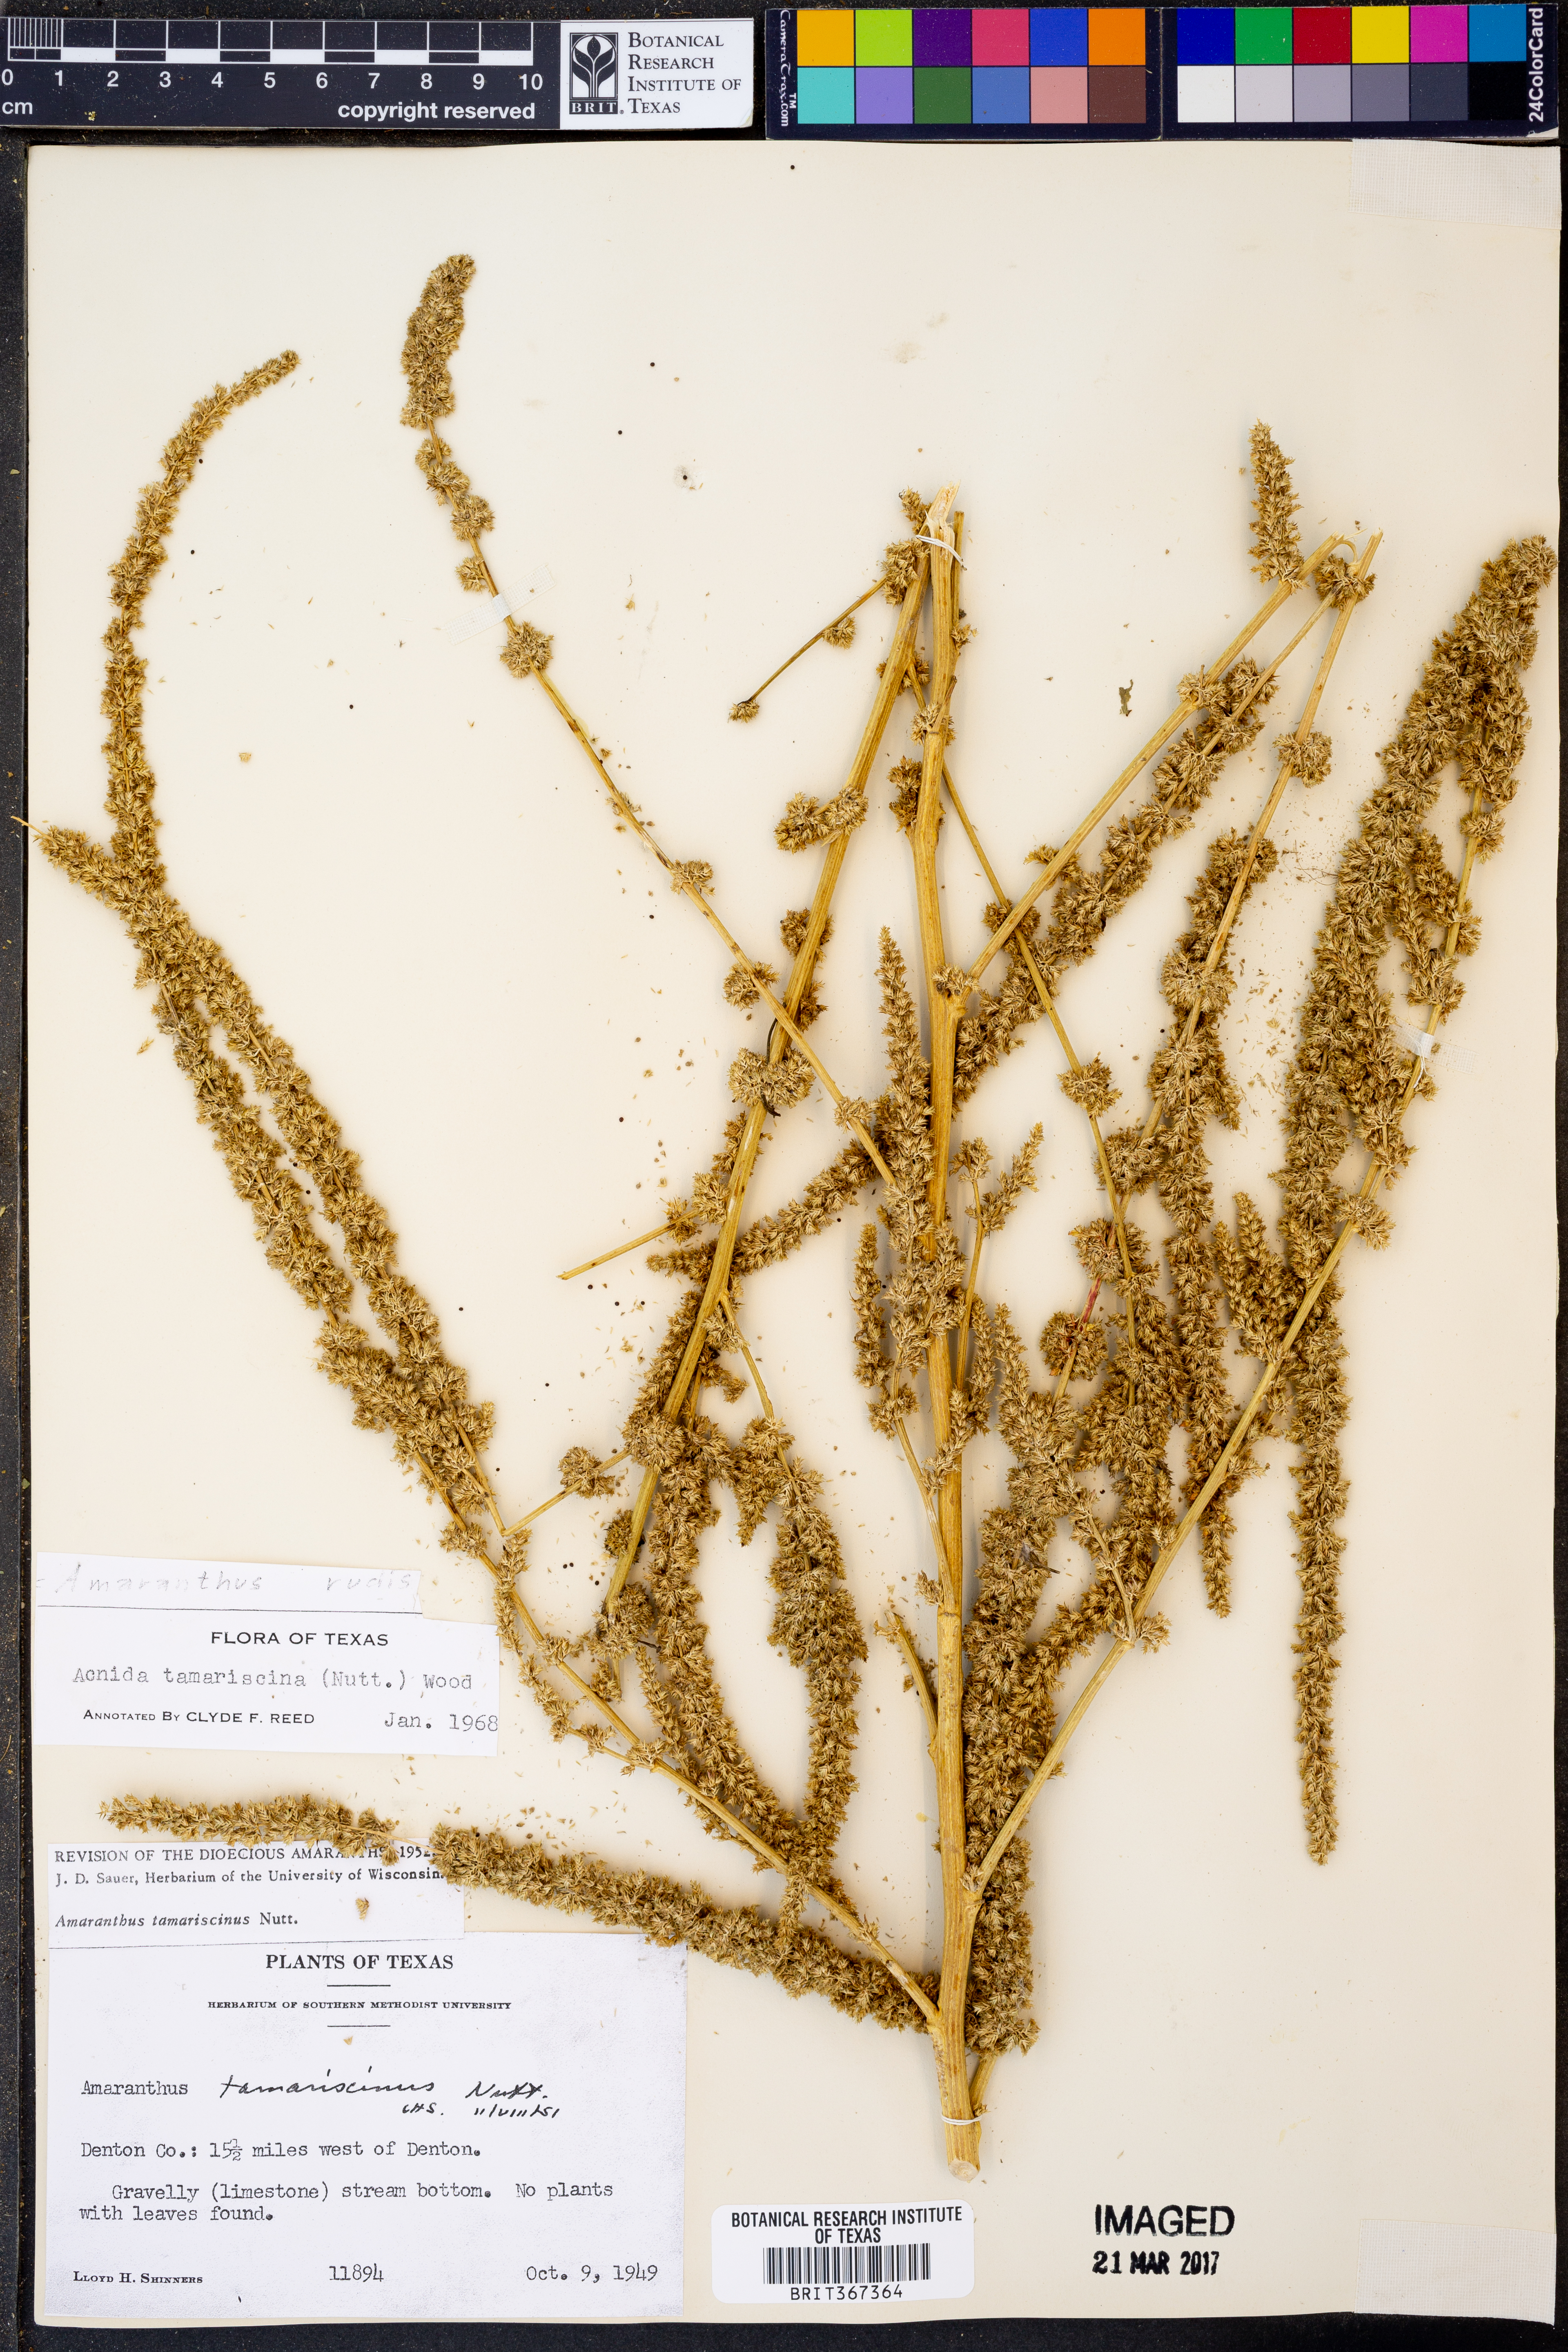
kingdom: Plantae
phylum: Tracheophyta
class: Magnoliopsida
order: Caryophyllales
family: Amaranthaceae
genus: Amaranthus
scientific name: Amaranthus tuberculatus
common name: Rough-fruit amaranth
